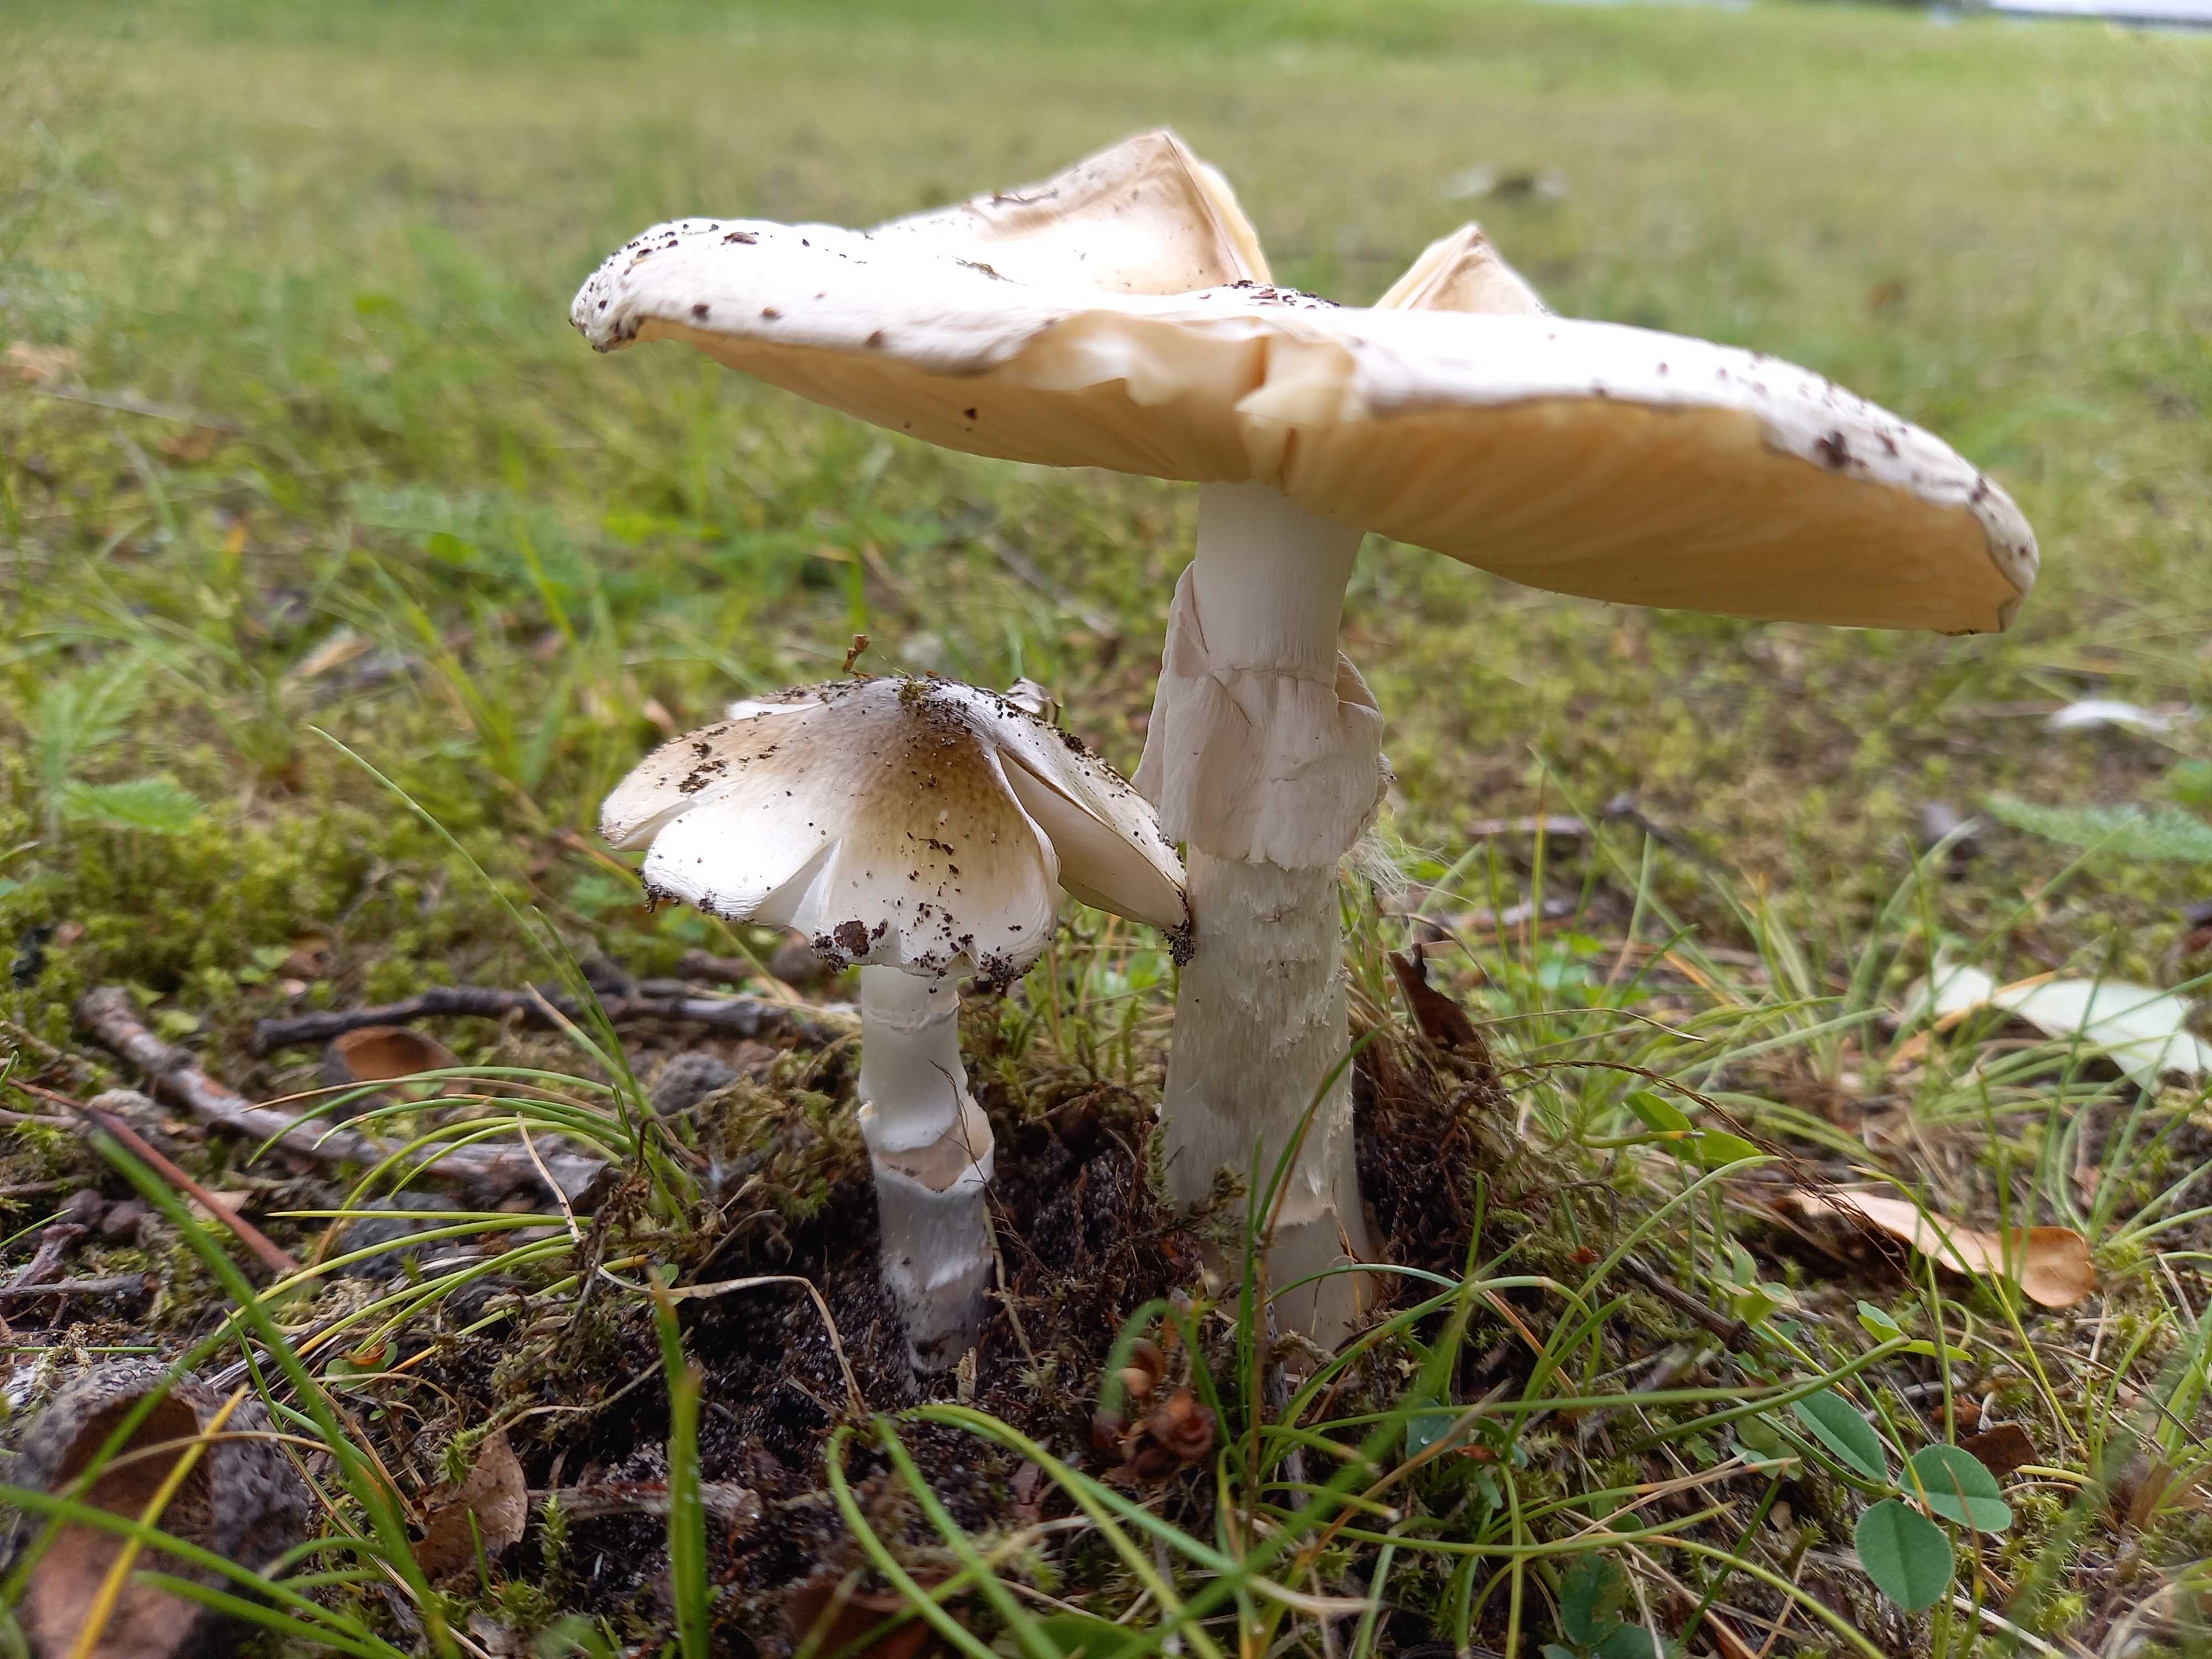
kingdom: Fungi
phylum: Basidiomycota
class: Agaricomycetes
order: Agaricales
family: Amanitaceae
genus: Amanita
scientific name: Amanita phalloides
